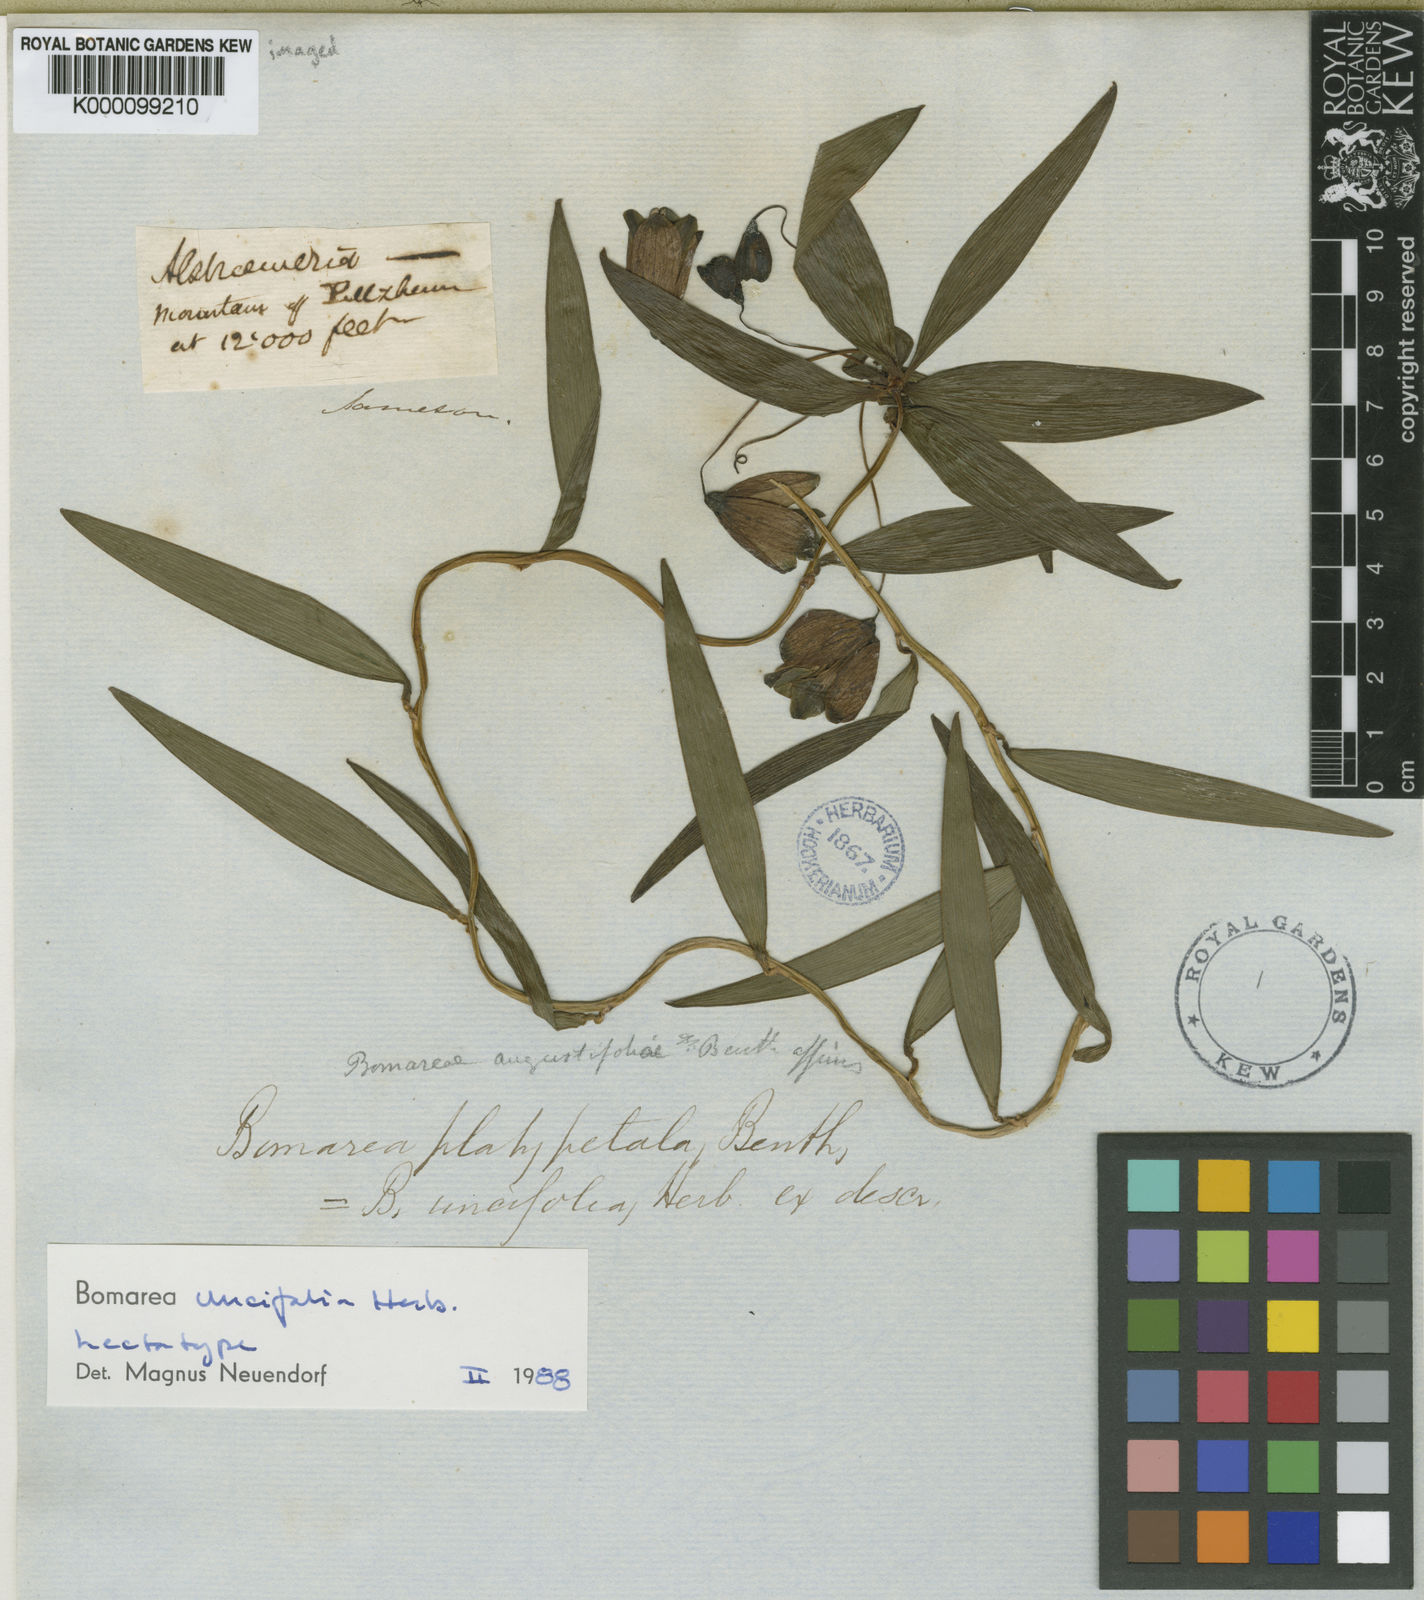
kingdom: Plantae
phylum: Tracheophyta
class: Liliopsida
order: Liliales
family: Alstroemeriaceae
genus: Bomarea
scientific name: Bomarea uncifolia
